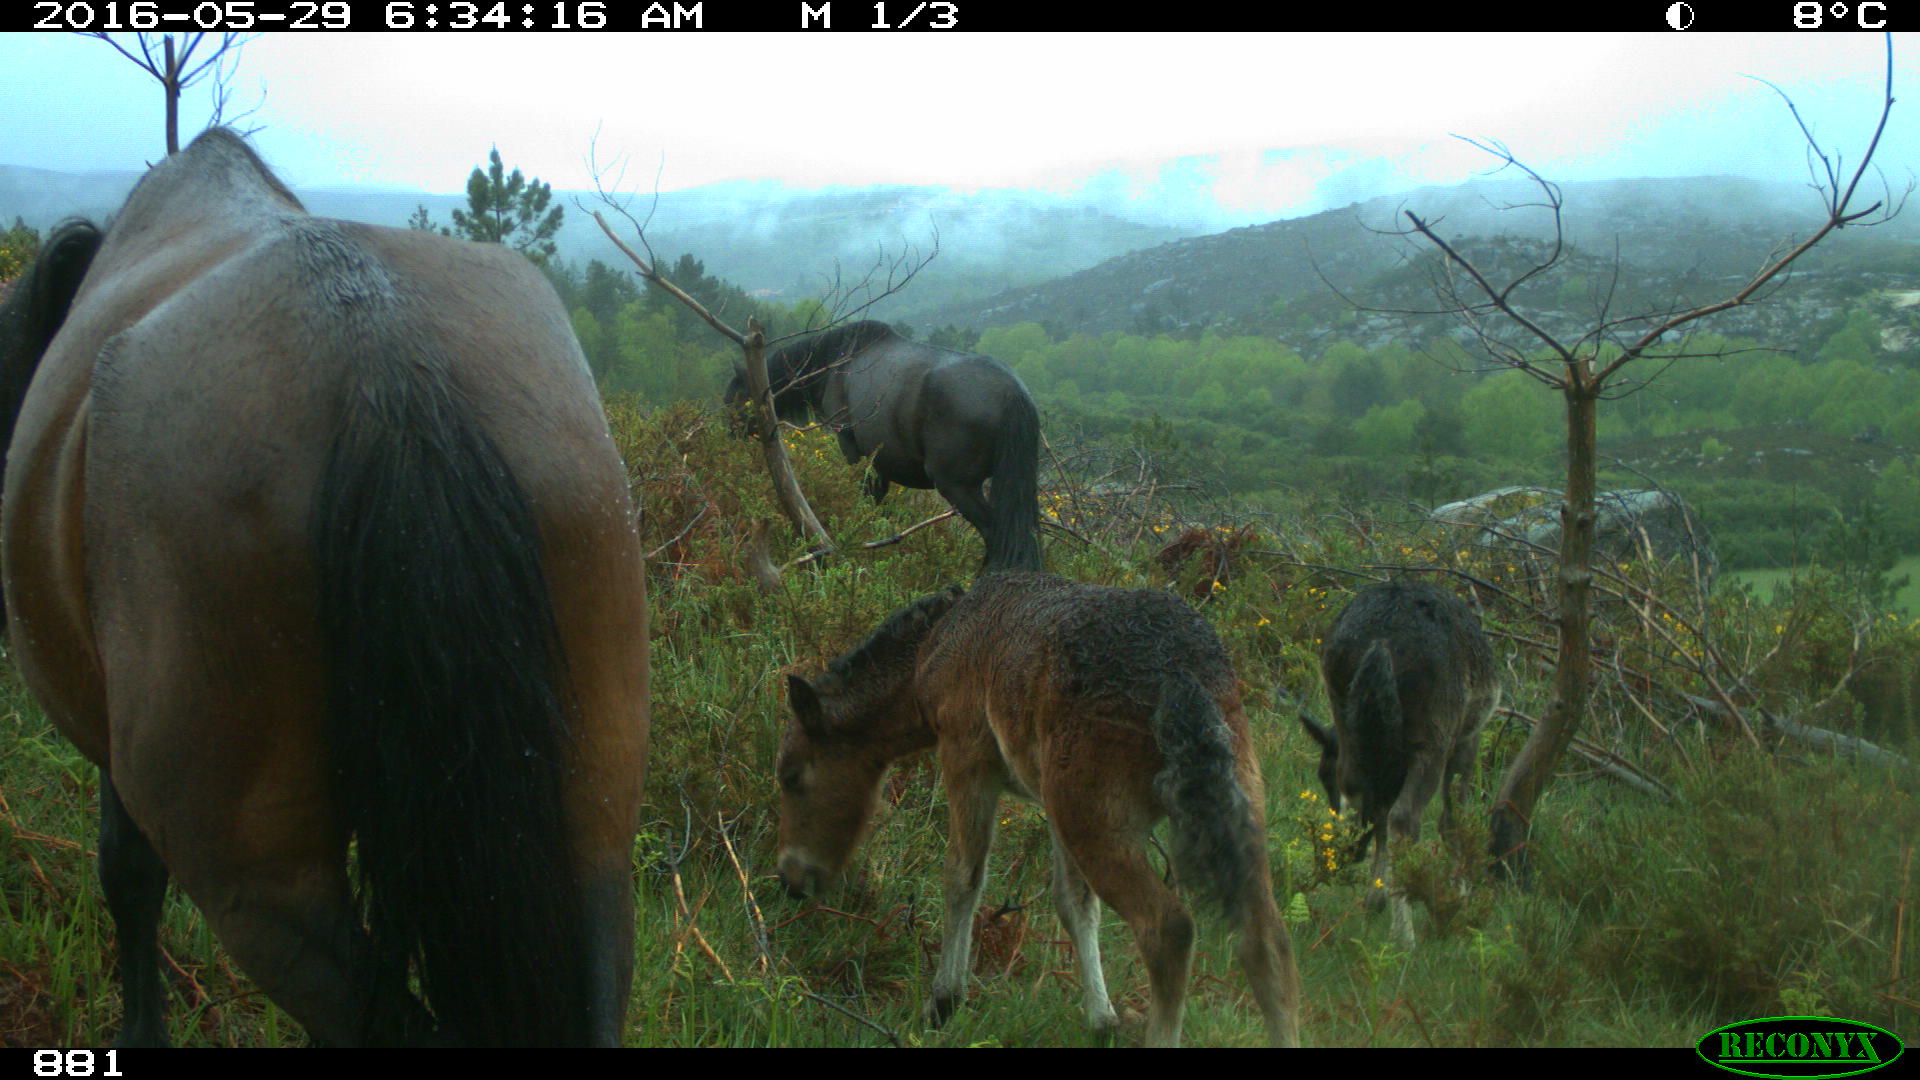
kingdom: Animalia
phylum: Chordata
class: Mammalia
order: Perissodactyla
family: Equidae
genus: Equus
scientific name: Equus caballus
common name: Horse
